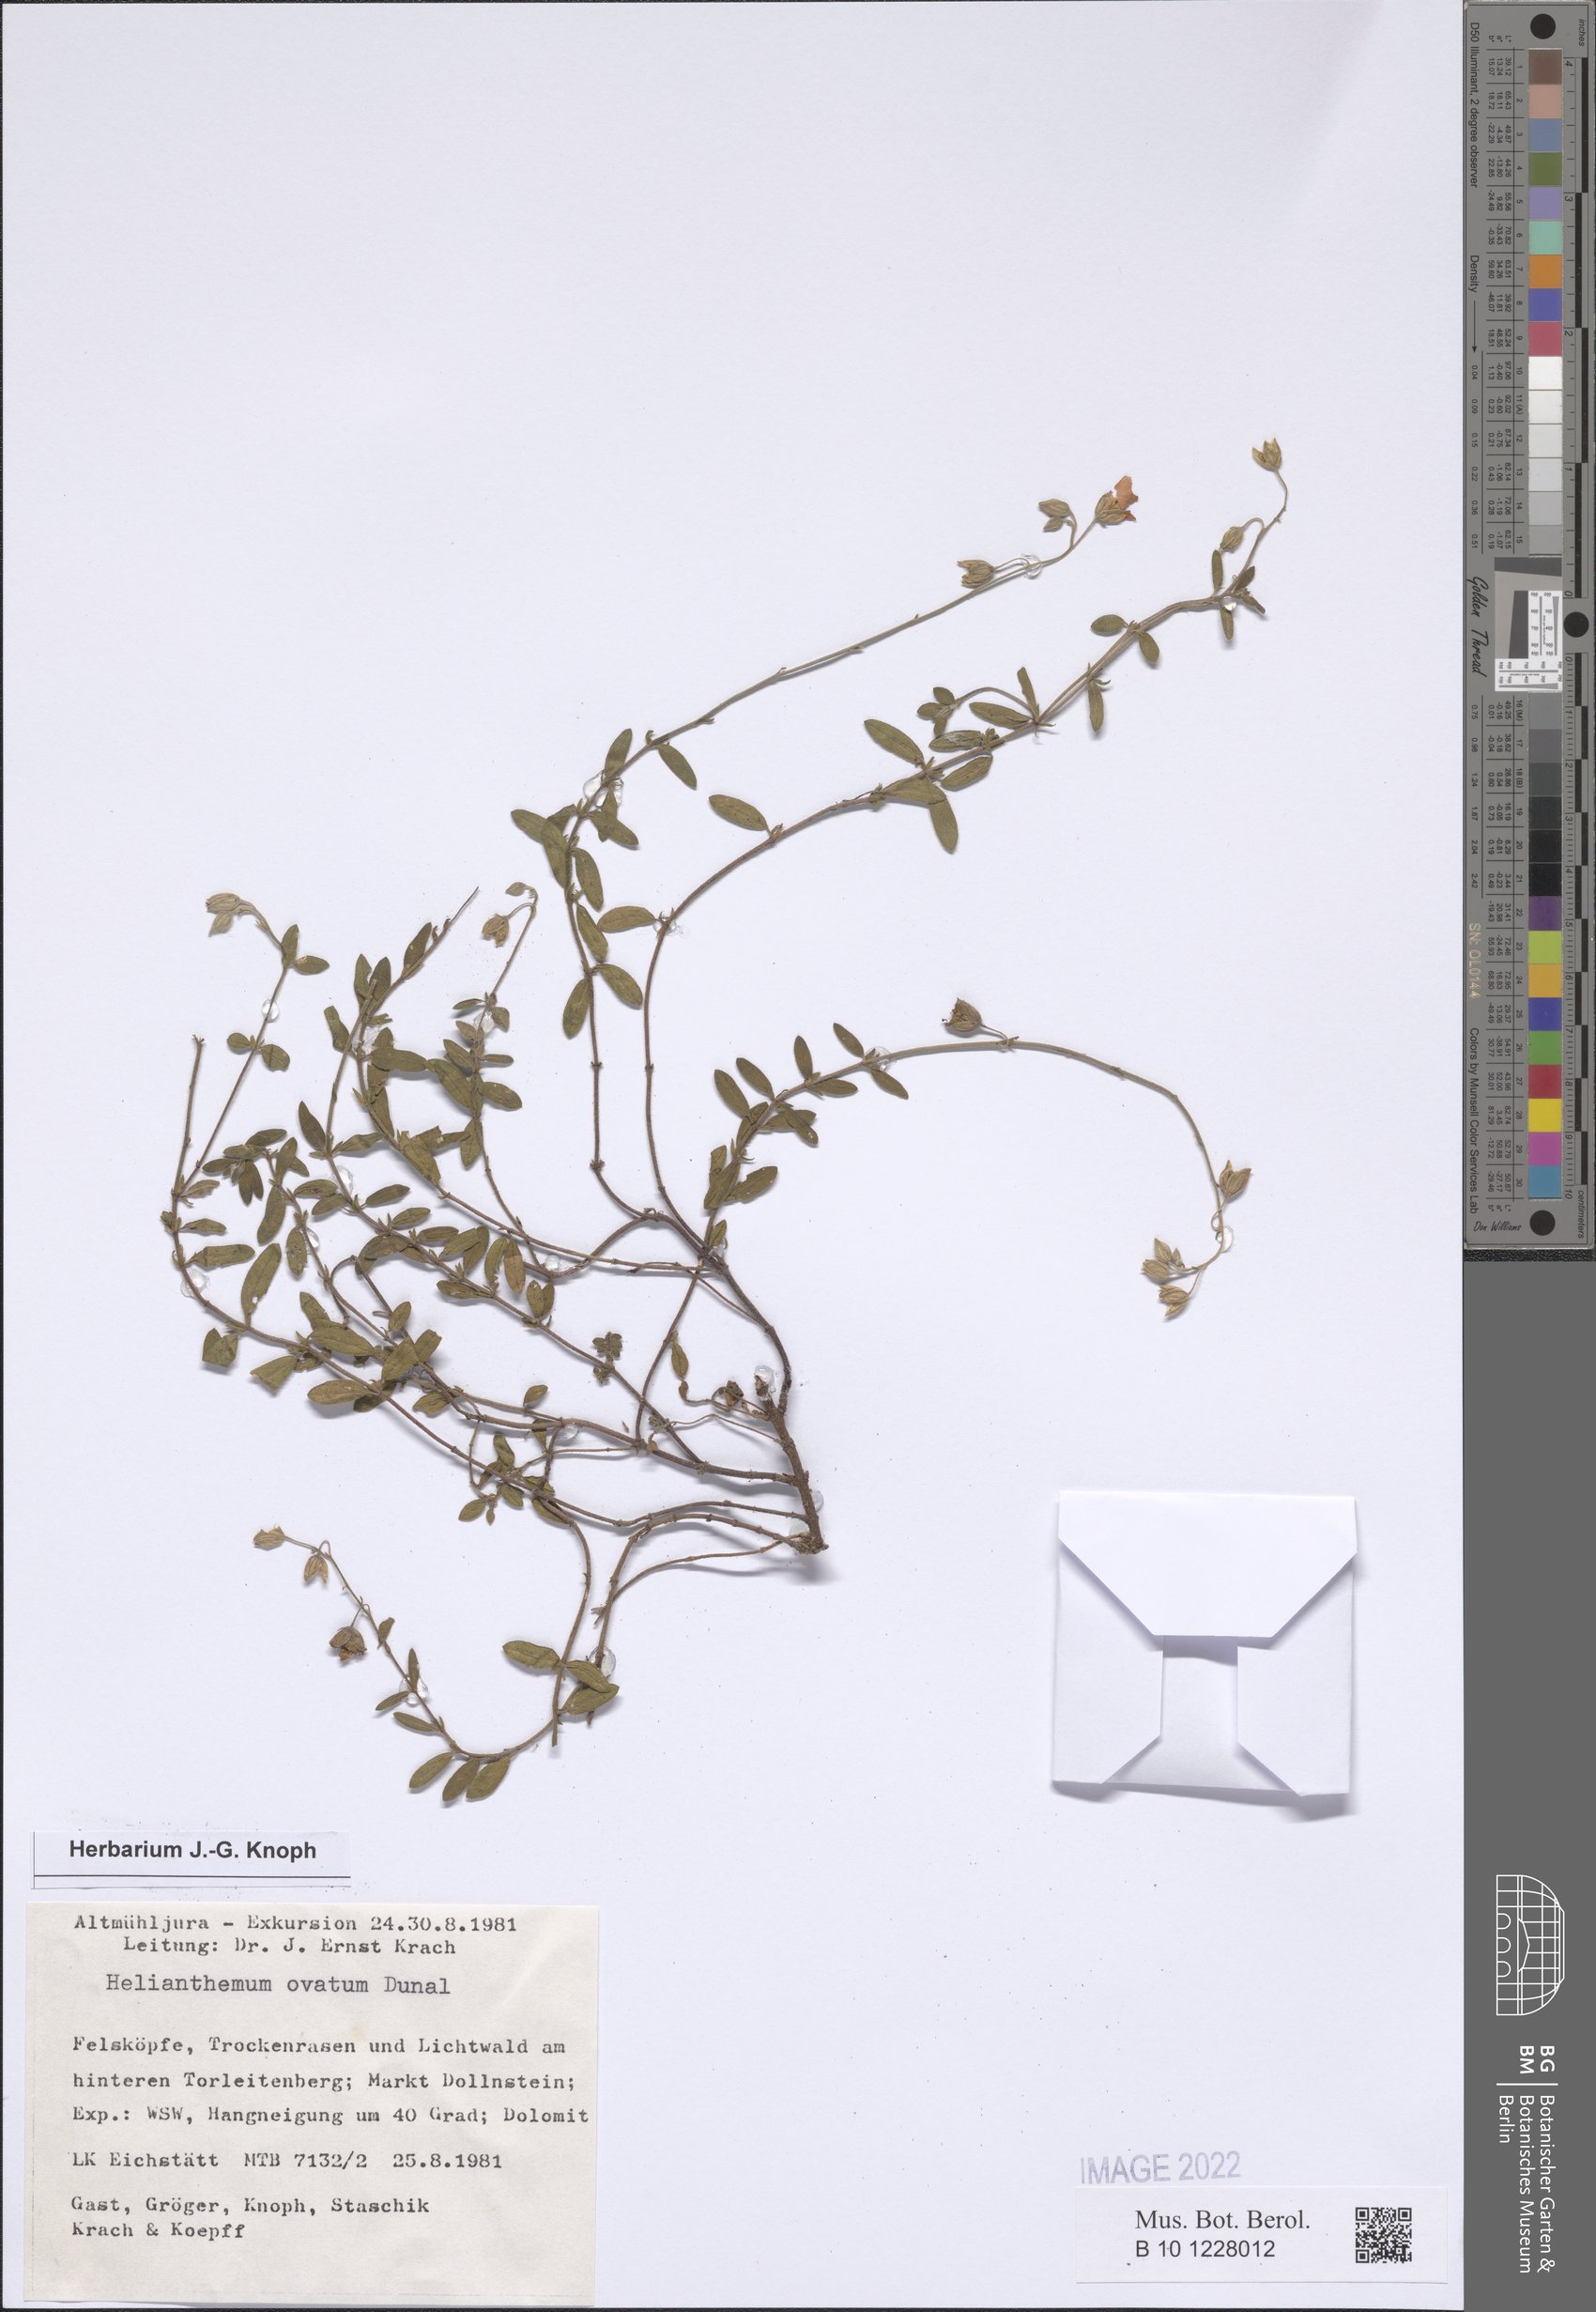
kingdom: Plantae
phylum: Tracheophyta
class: Magnoliopsida
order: Malvales
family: Cistaceae
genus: Helianthemum
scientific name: Helianthemum nummularium
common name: Common rock-rose
